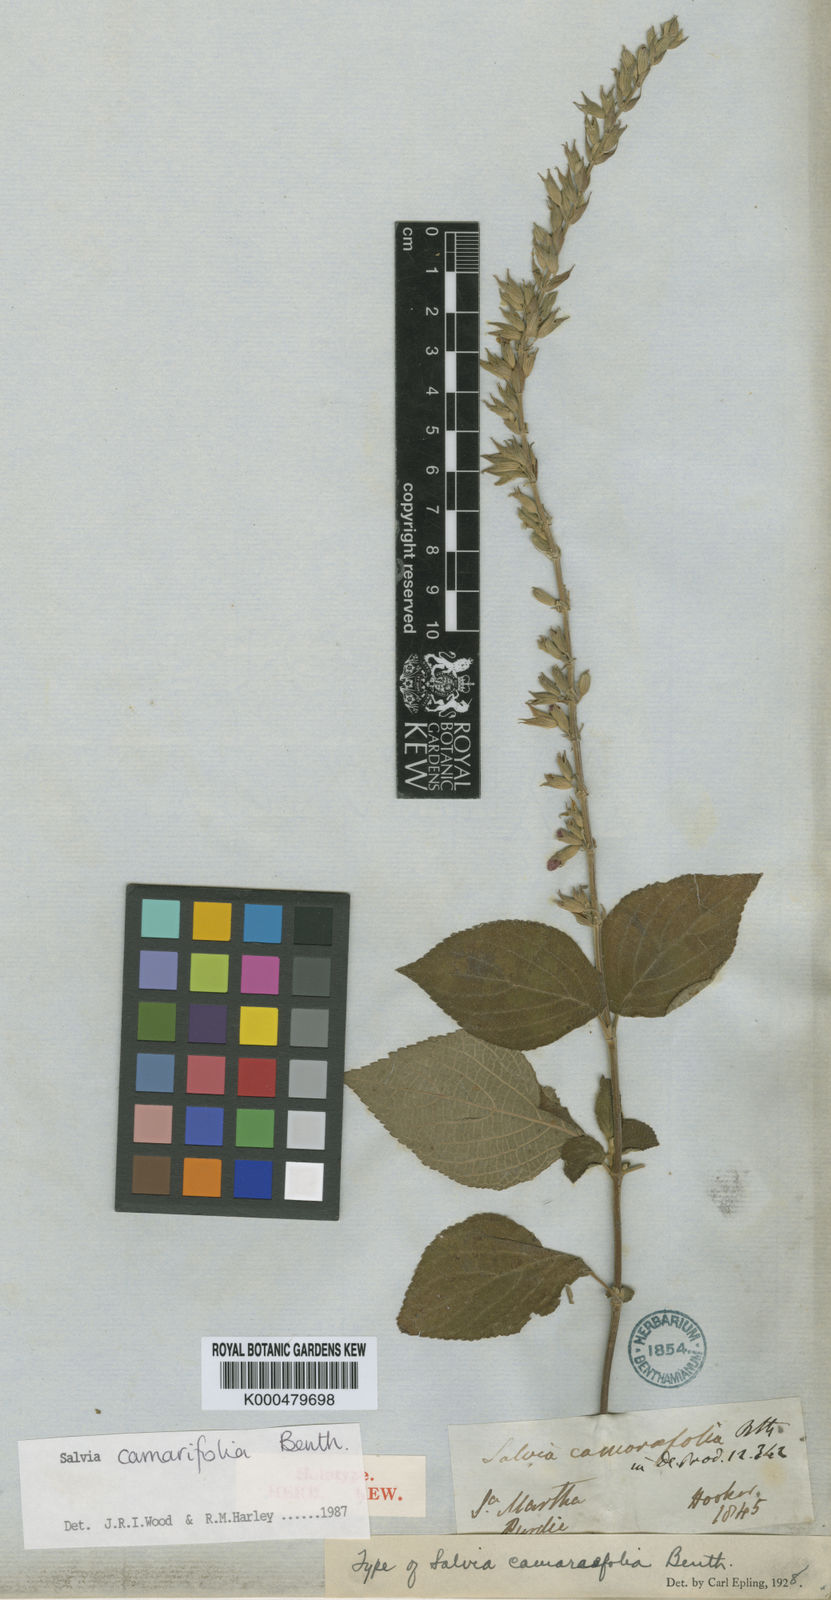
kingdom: Plantae
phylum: Tracheophyta
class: Magnoliopsida
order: Lamiales
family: Lamiaceae
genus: Salvia
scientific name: Salvia camarifolia
